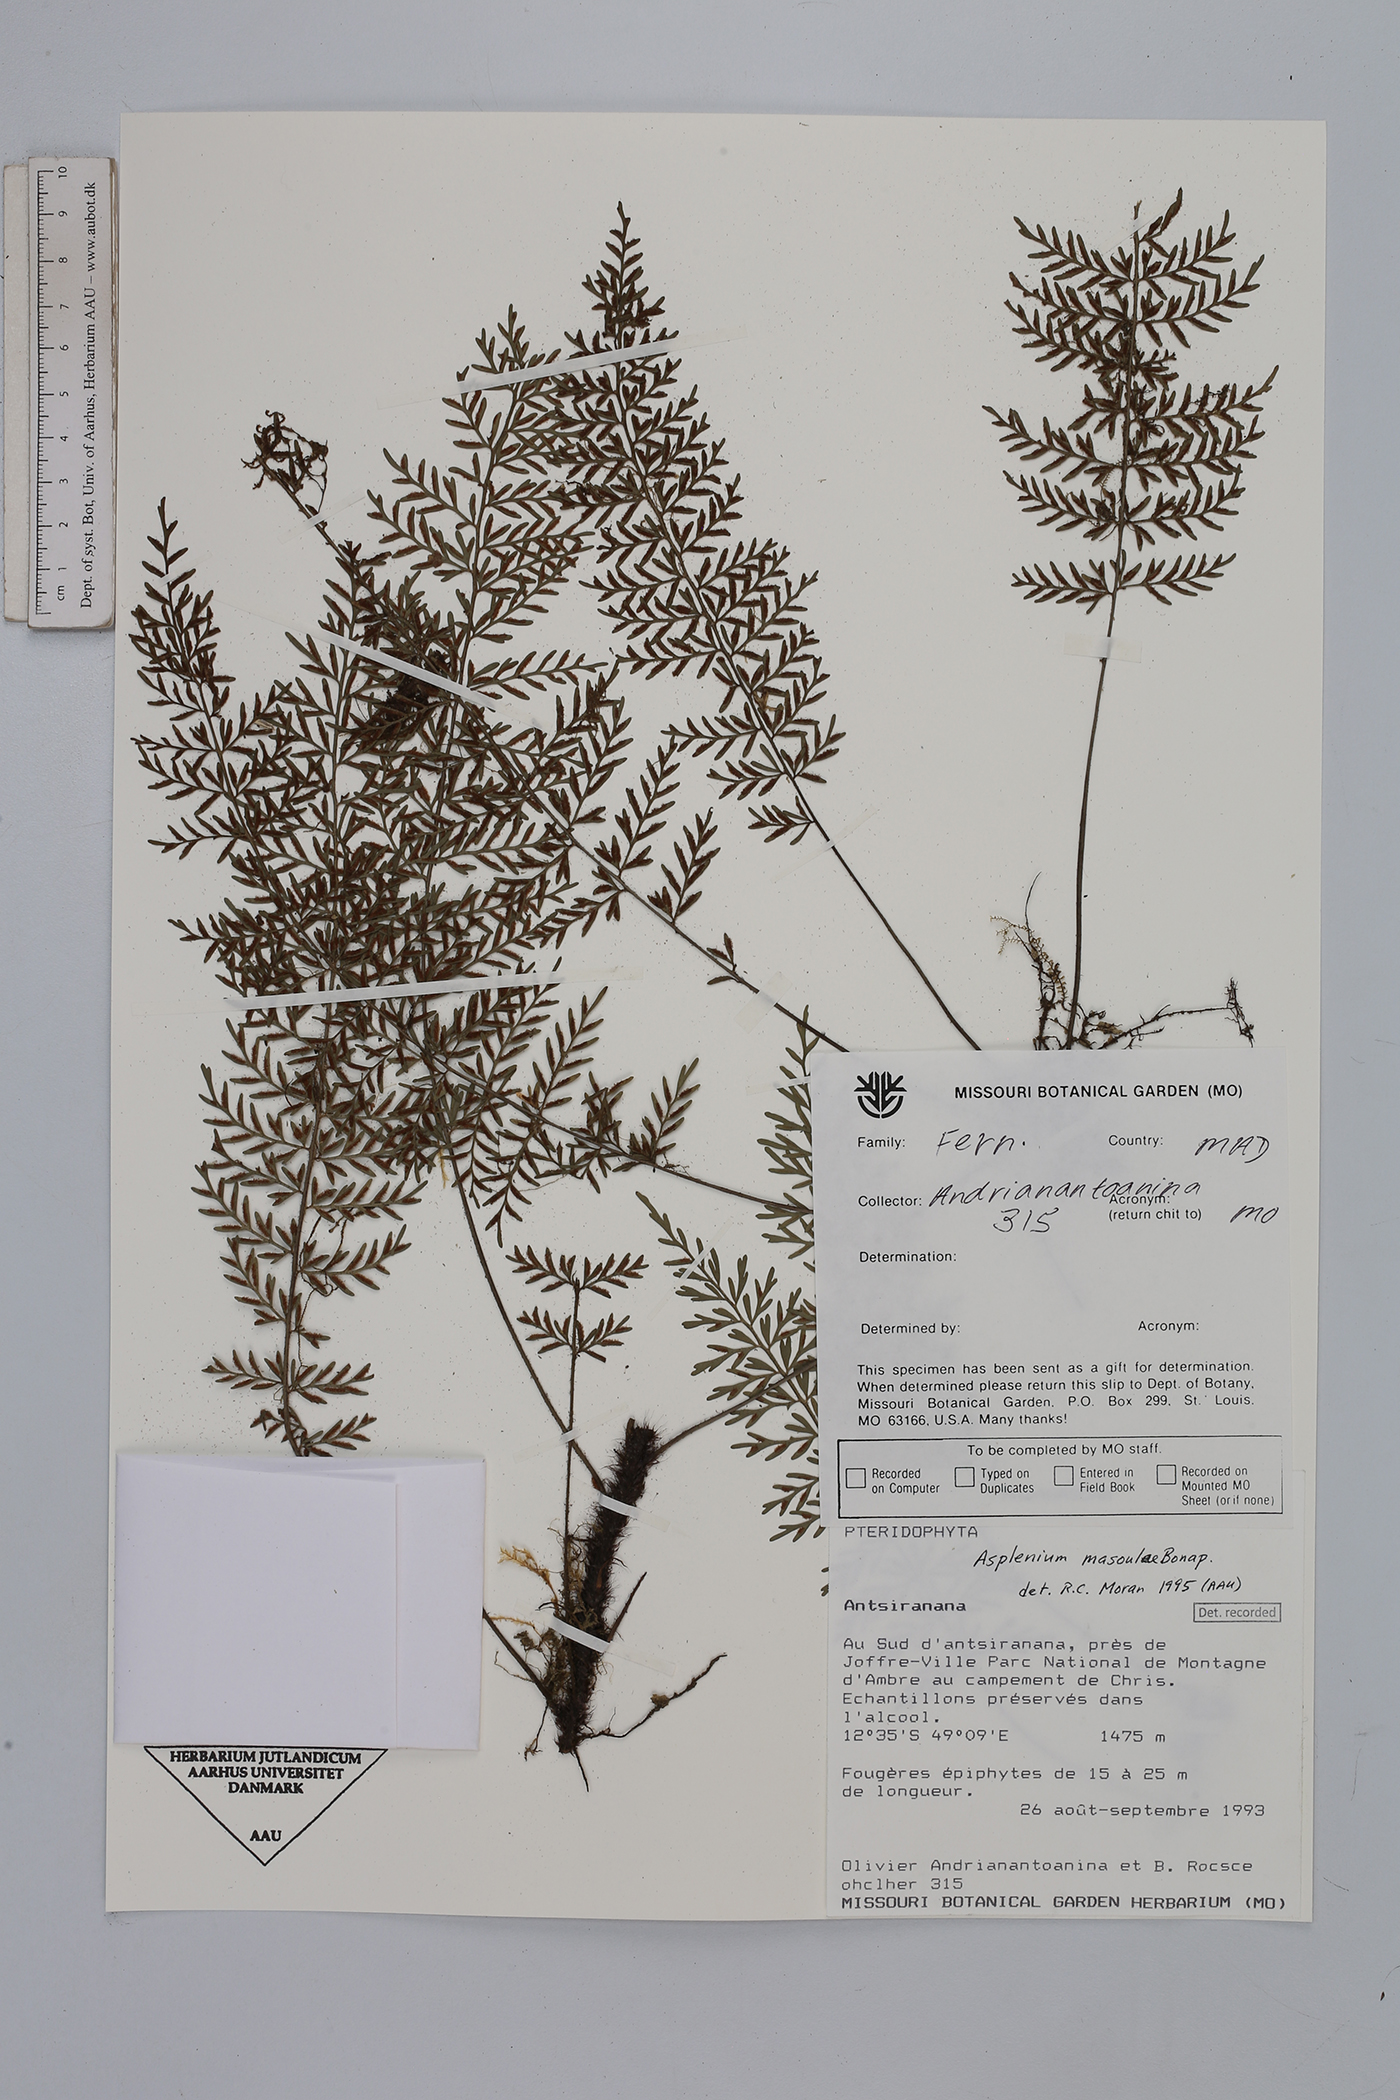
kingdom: Plantae
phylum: Tracheophyta
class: Polypodiopsida
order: Polypodiales
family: Aspleniaceae
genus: Asplenium
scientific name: Asplenium herpetopteris
